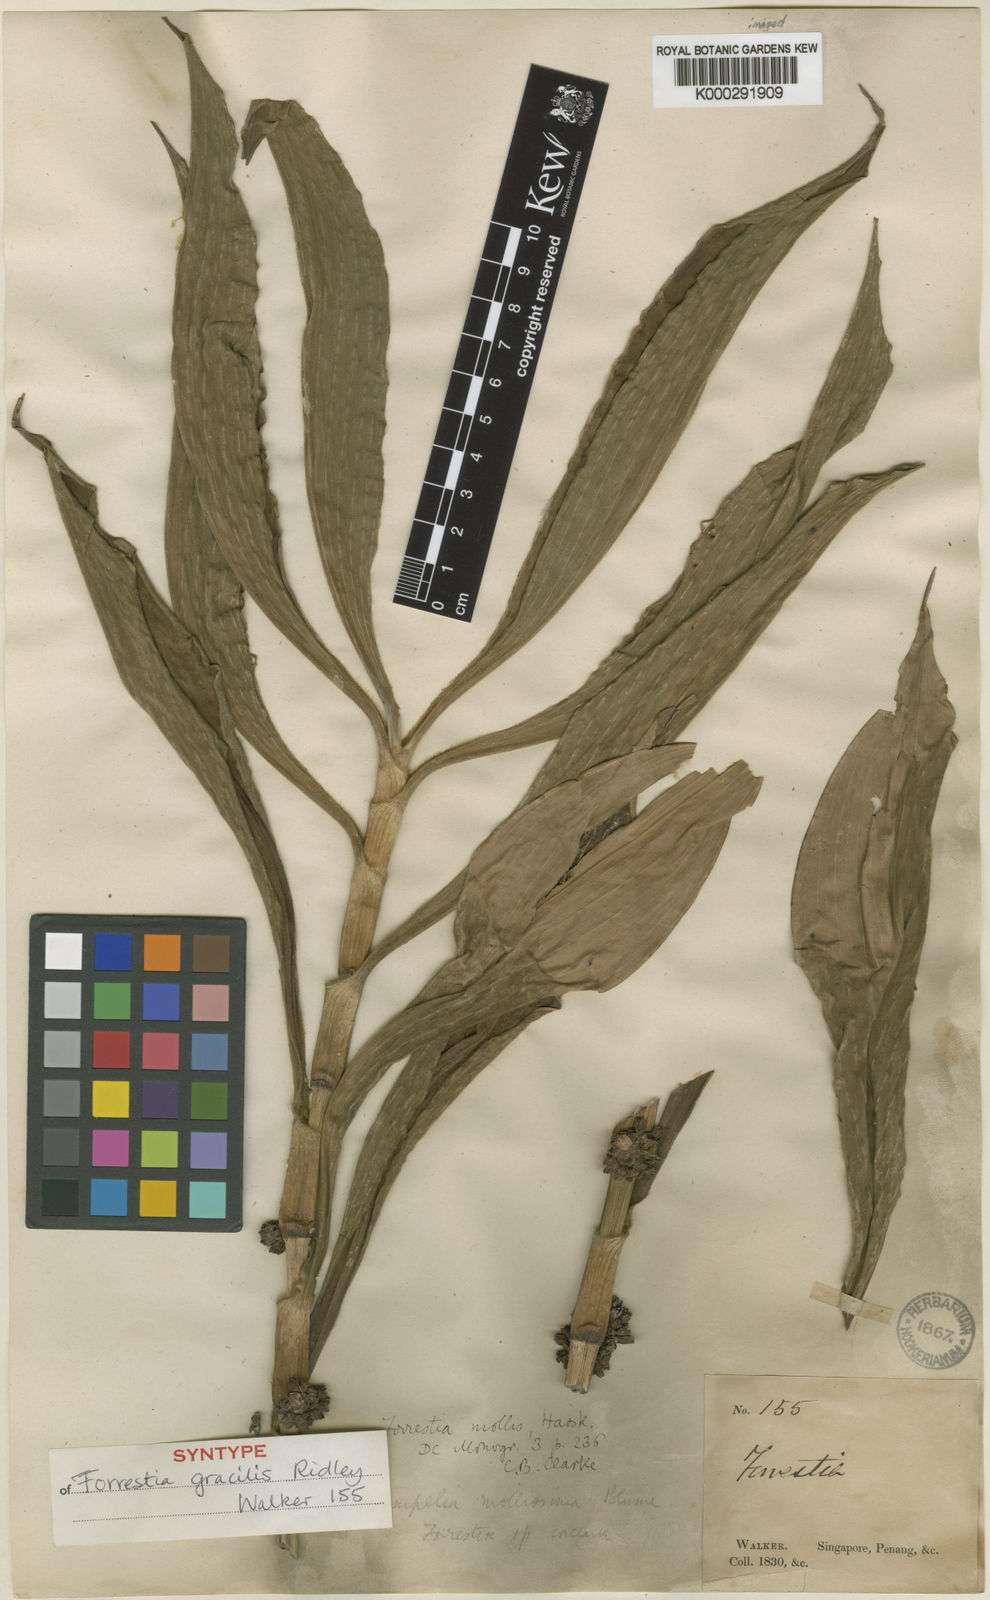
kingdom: Plantae
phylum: Tracheophyta
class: Liliopsida
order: Commelinales
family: Commelinaceae
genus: Amischotolype
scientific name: Amischotolype gracilis
